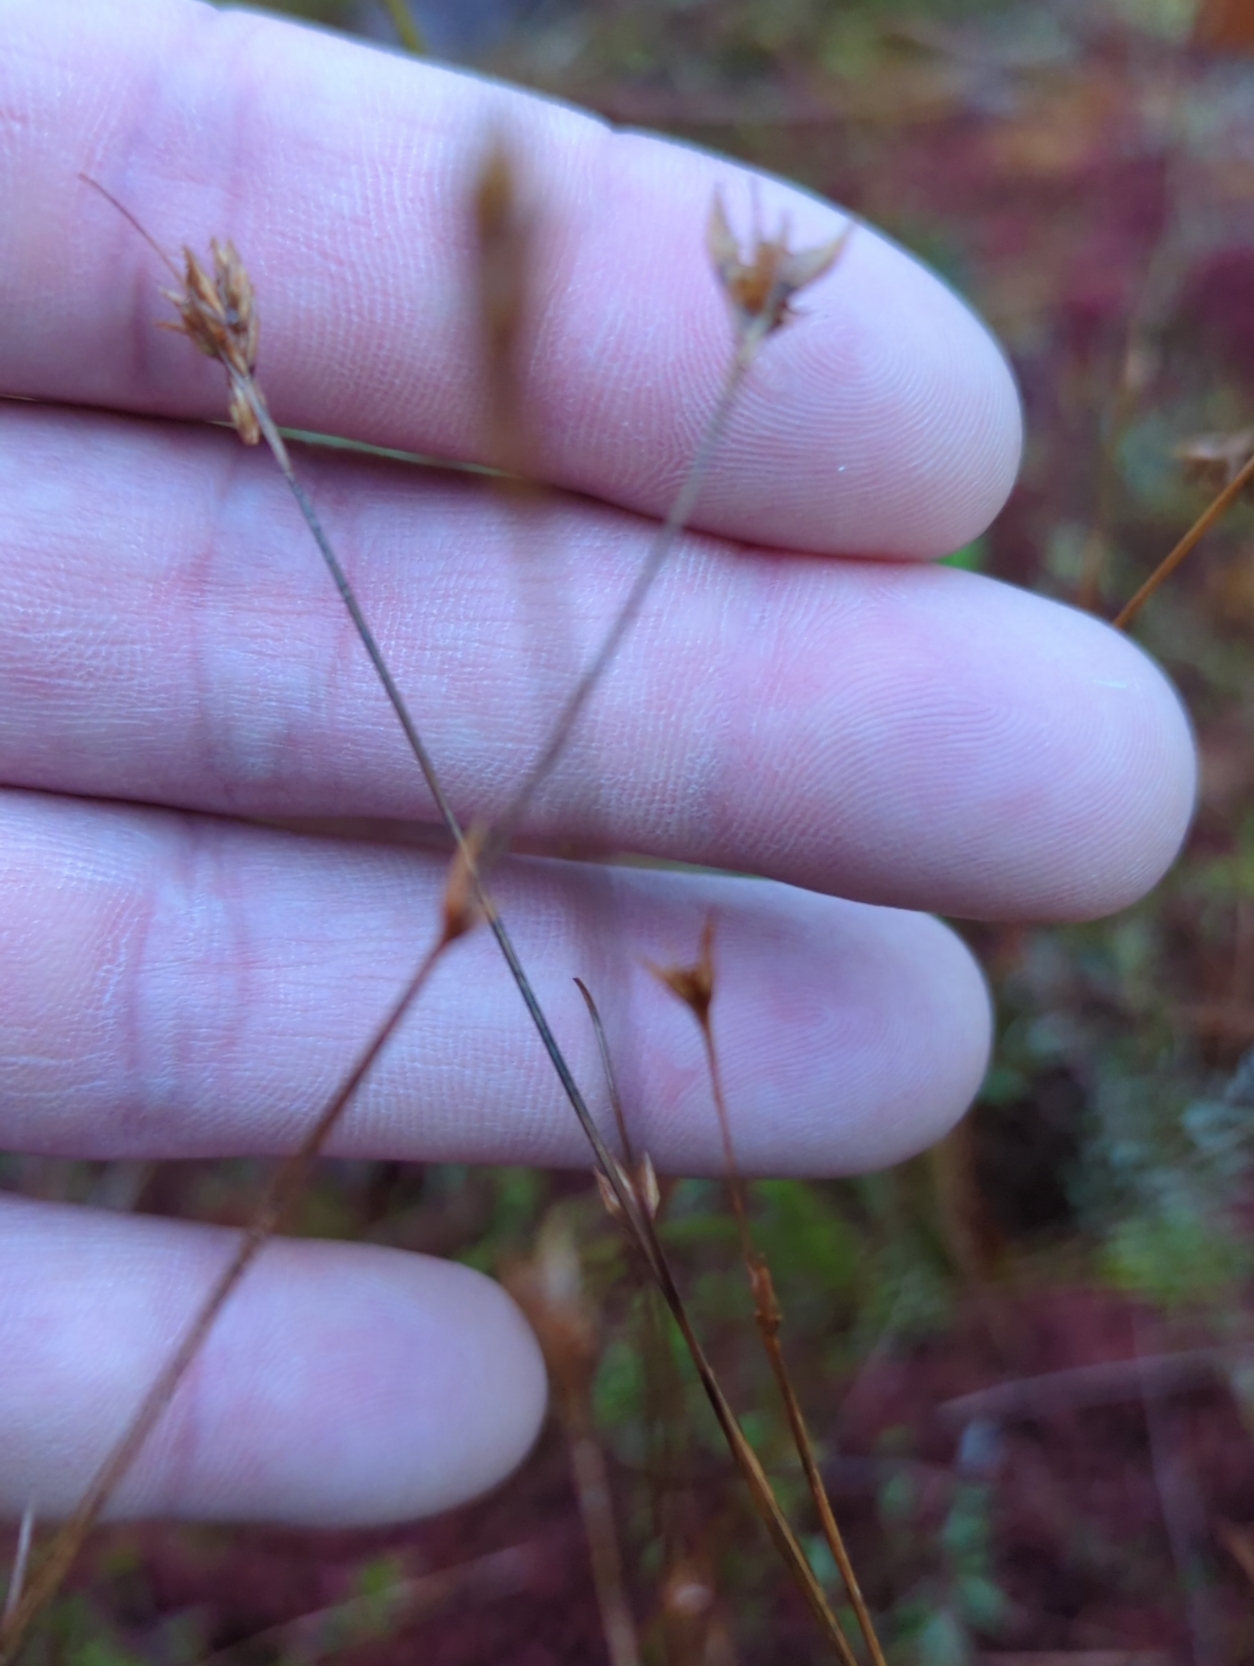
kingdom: Plantae
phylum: Tracheophyta
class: Liliopsida
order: Poales
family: Cyperaceae
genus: Rhynchospora
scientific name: Rhynchospora
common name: Næbfrøslægten
